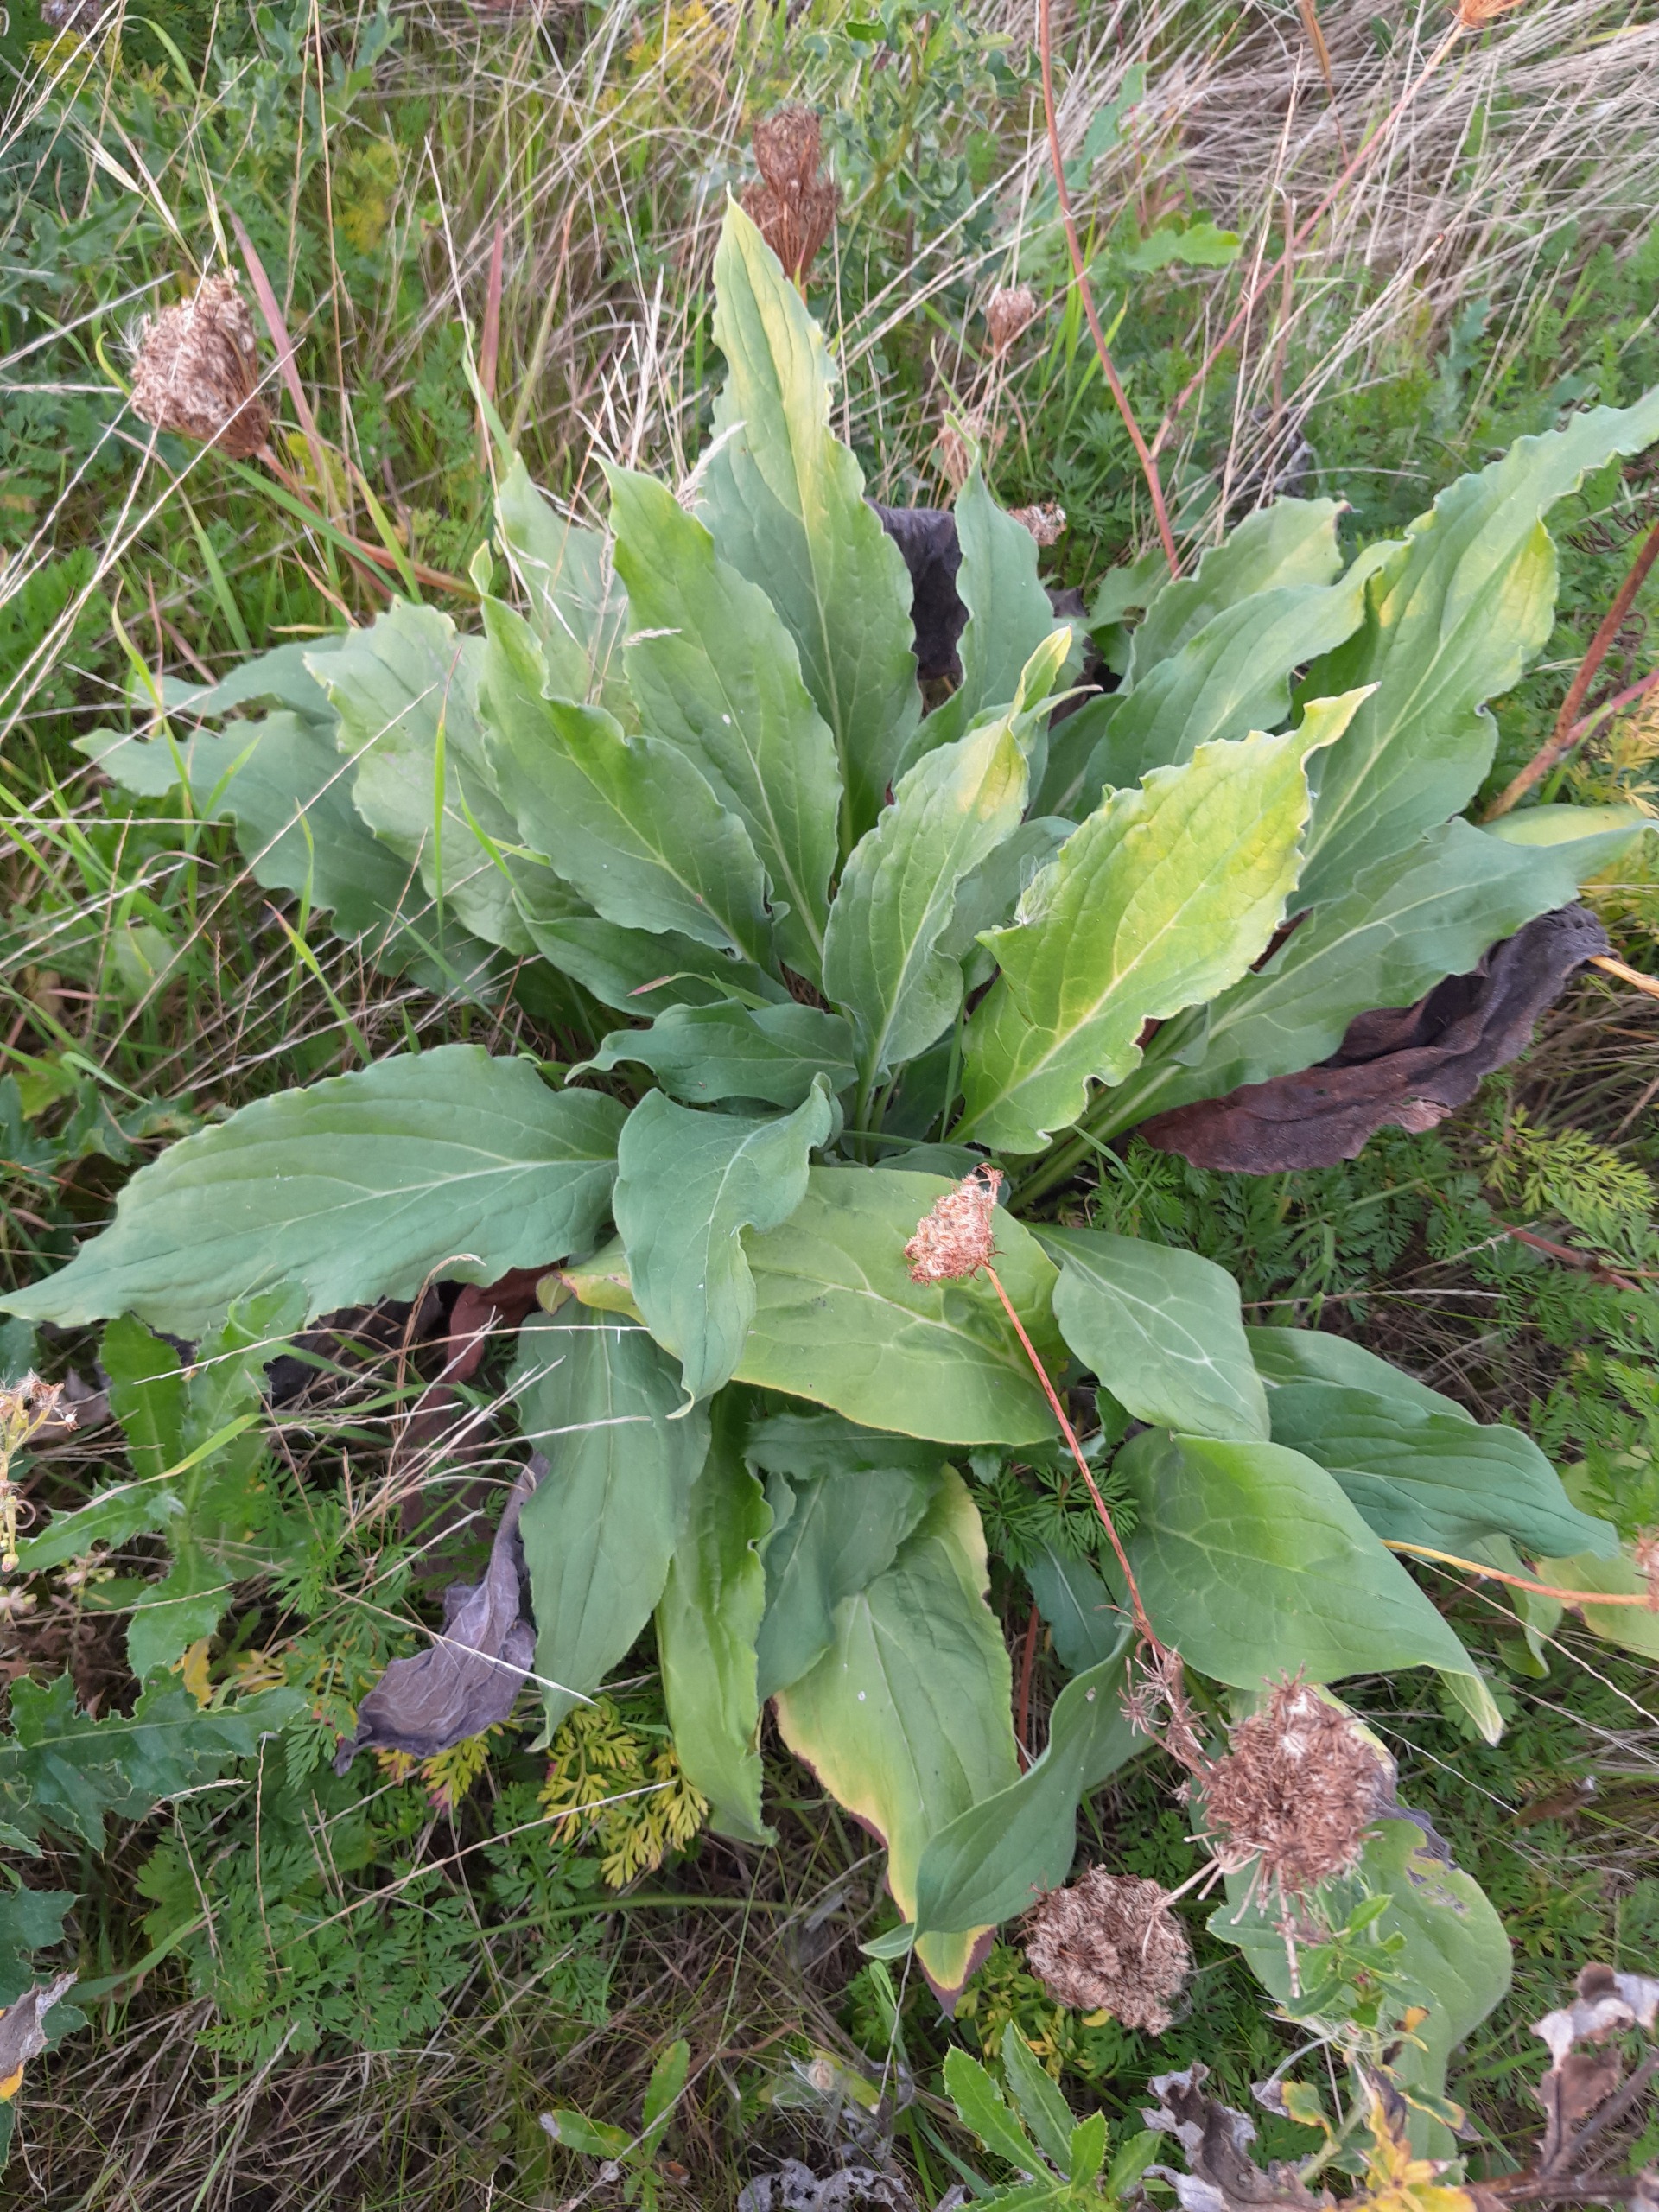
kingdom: Plantae
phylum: Tracheophyta
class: Magnoliopsida
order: Boraginales
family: Boraginaceae
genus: Cynoglossum
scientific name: Cynoglossum officinale
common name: Hundetunge
